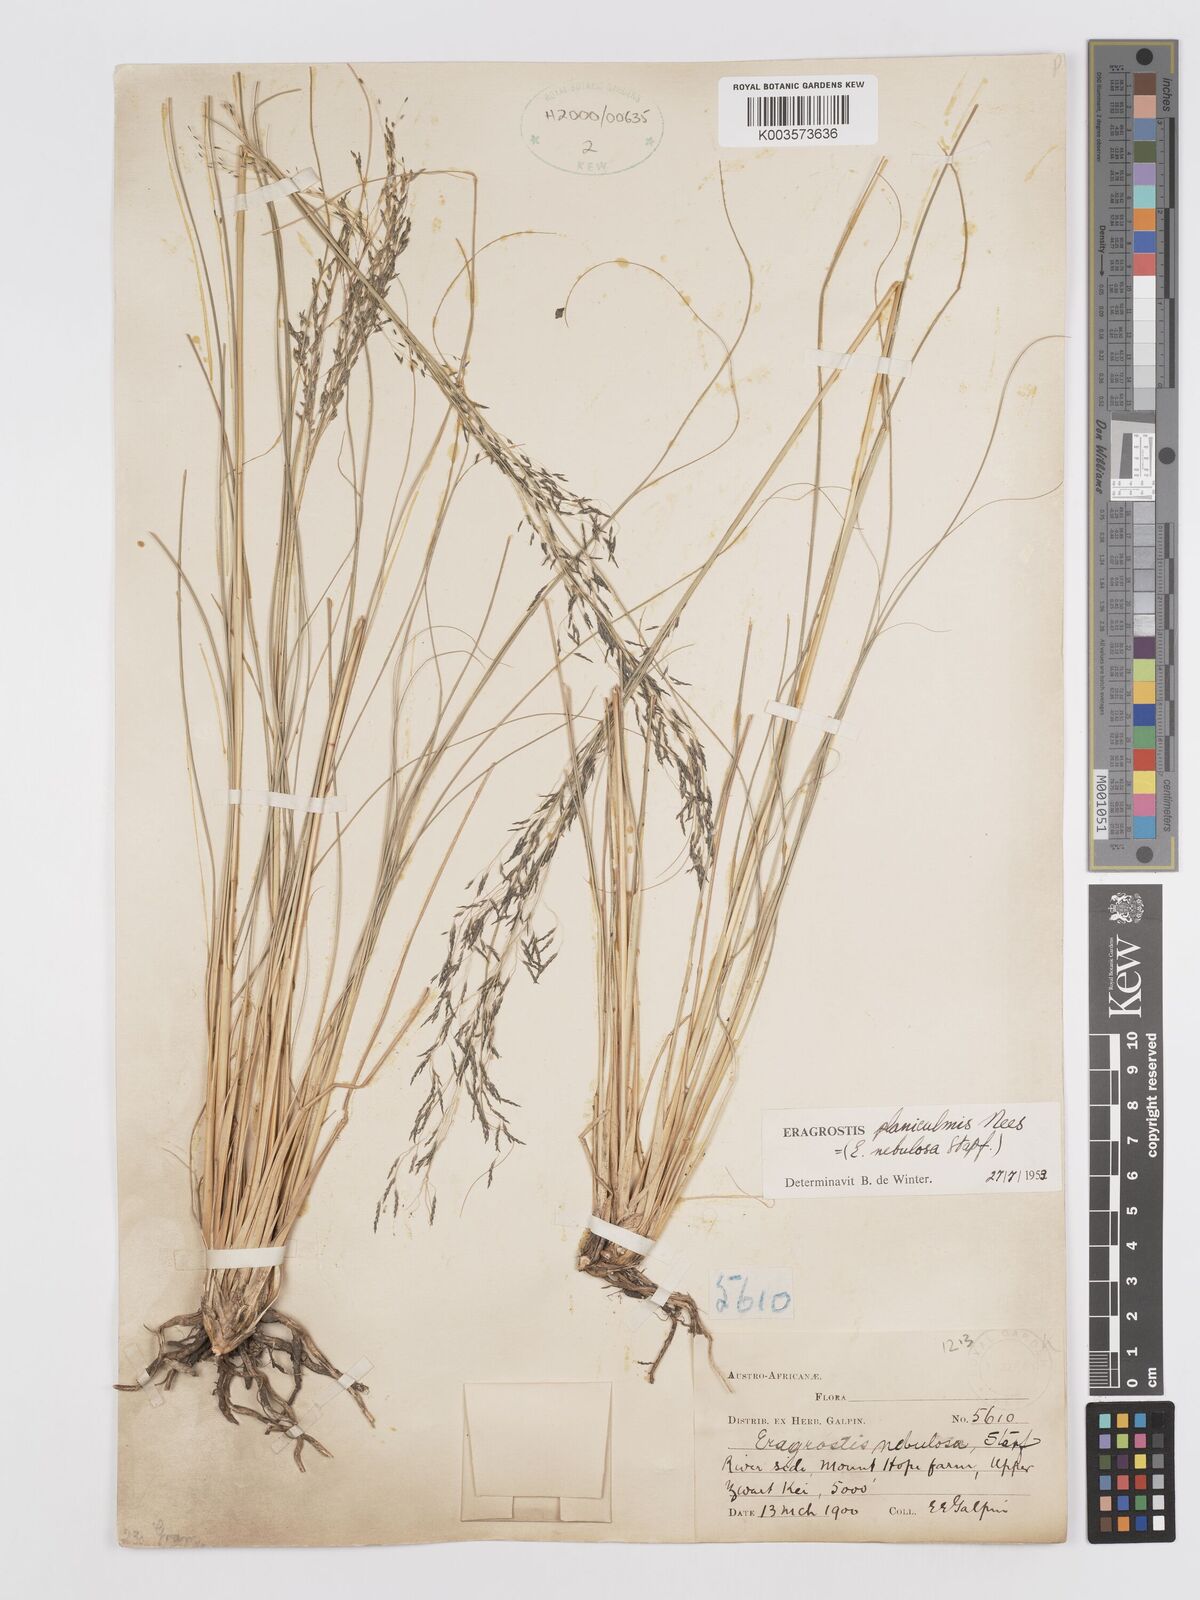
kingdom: Plantae
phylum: Tracheophyta
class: Liliopsida
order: Poales
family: Poaceae
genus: Eragrostis
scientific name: Eragrostis planiculmis
